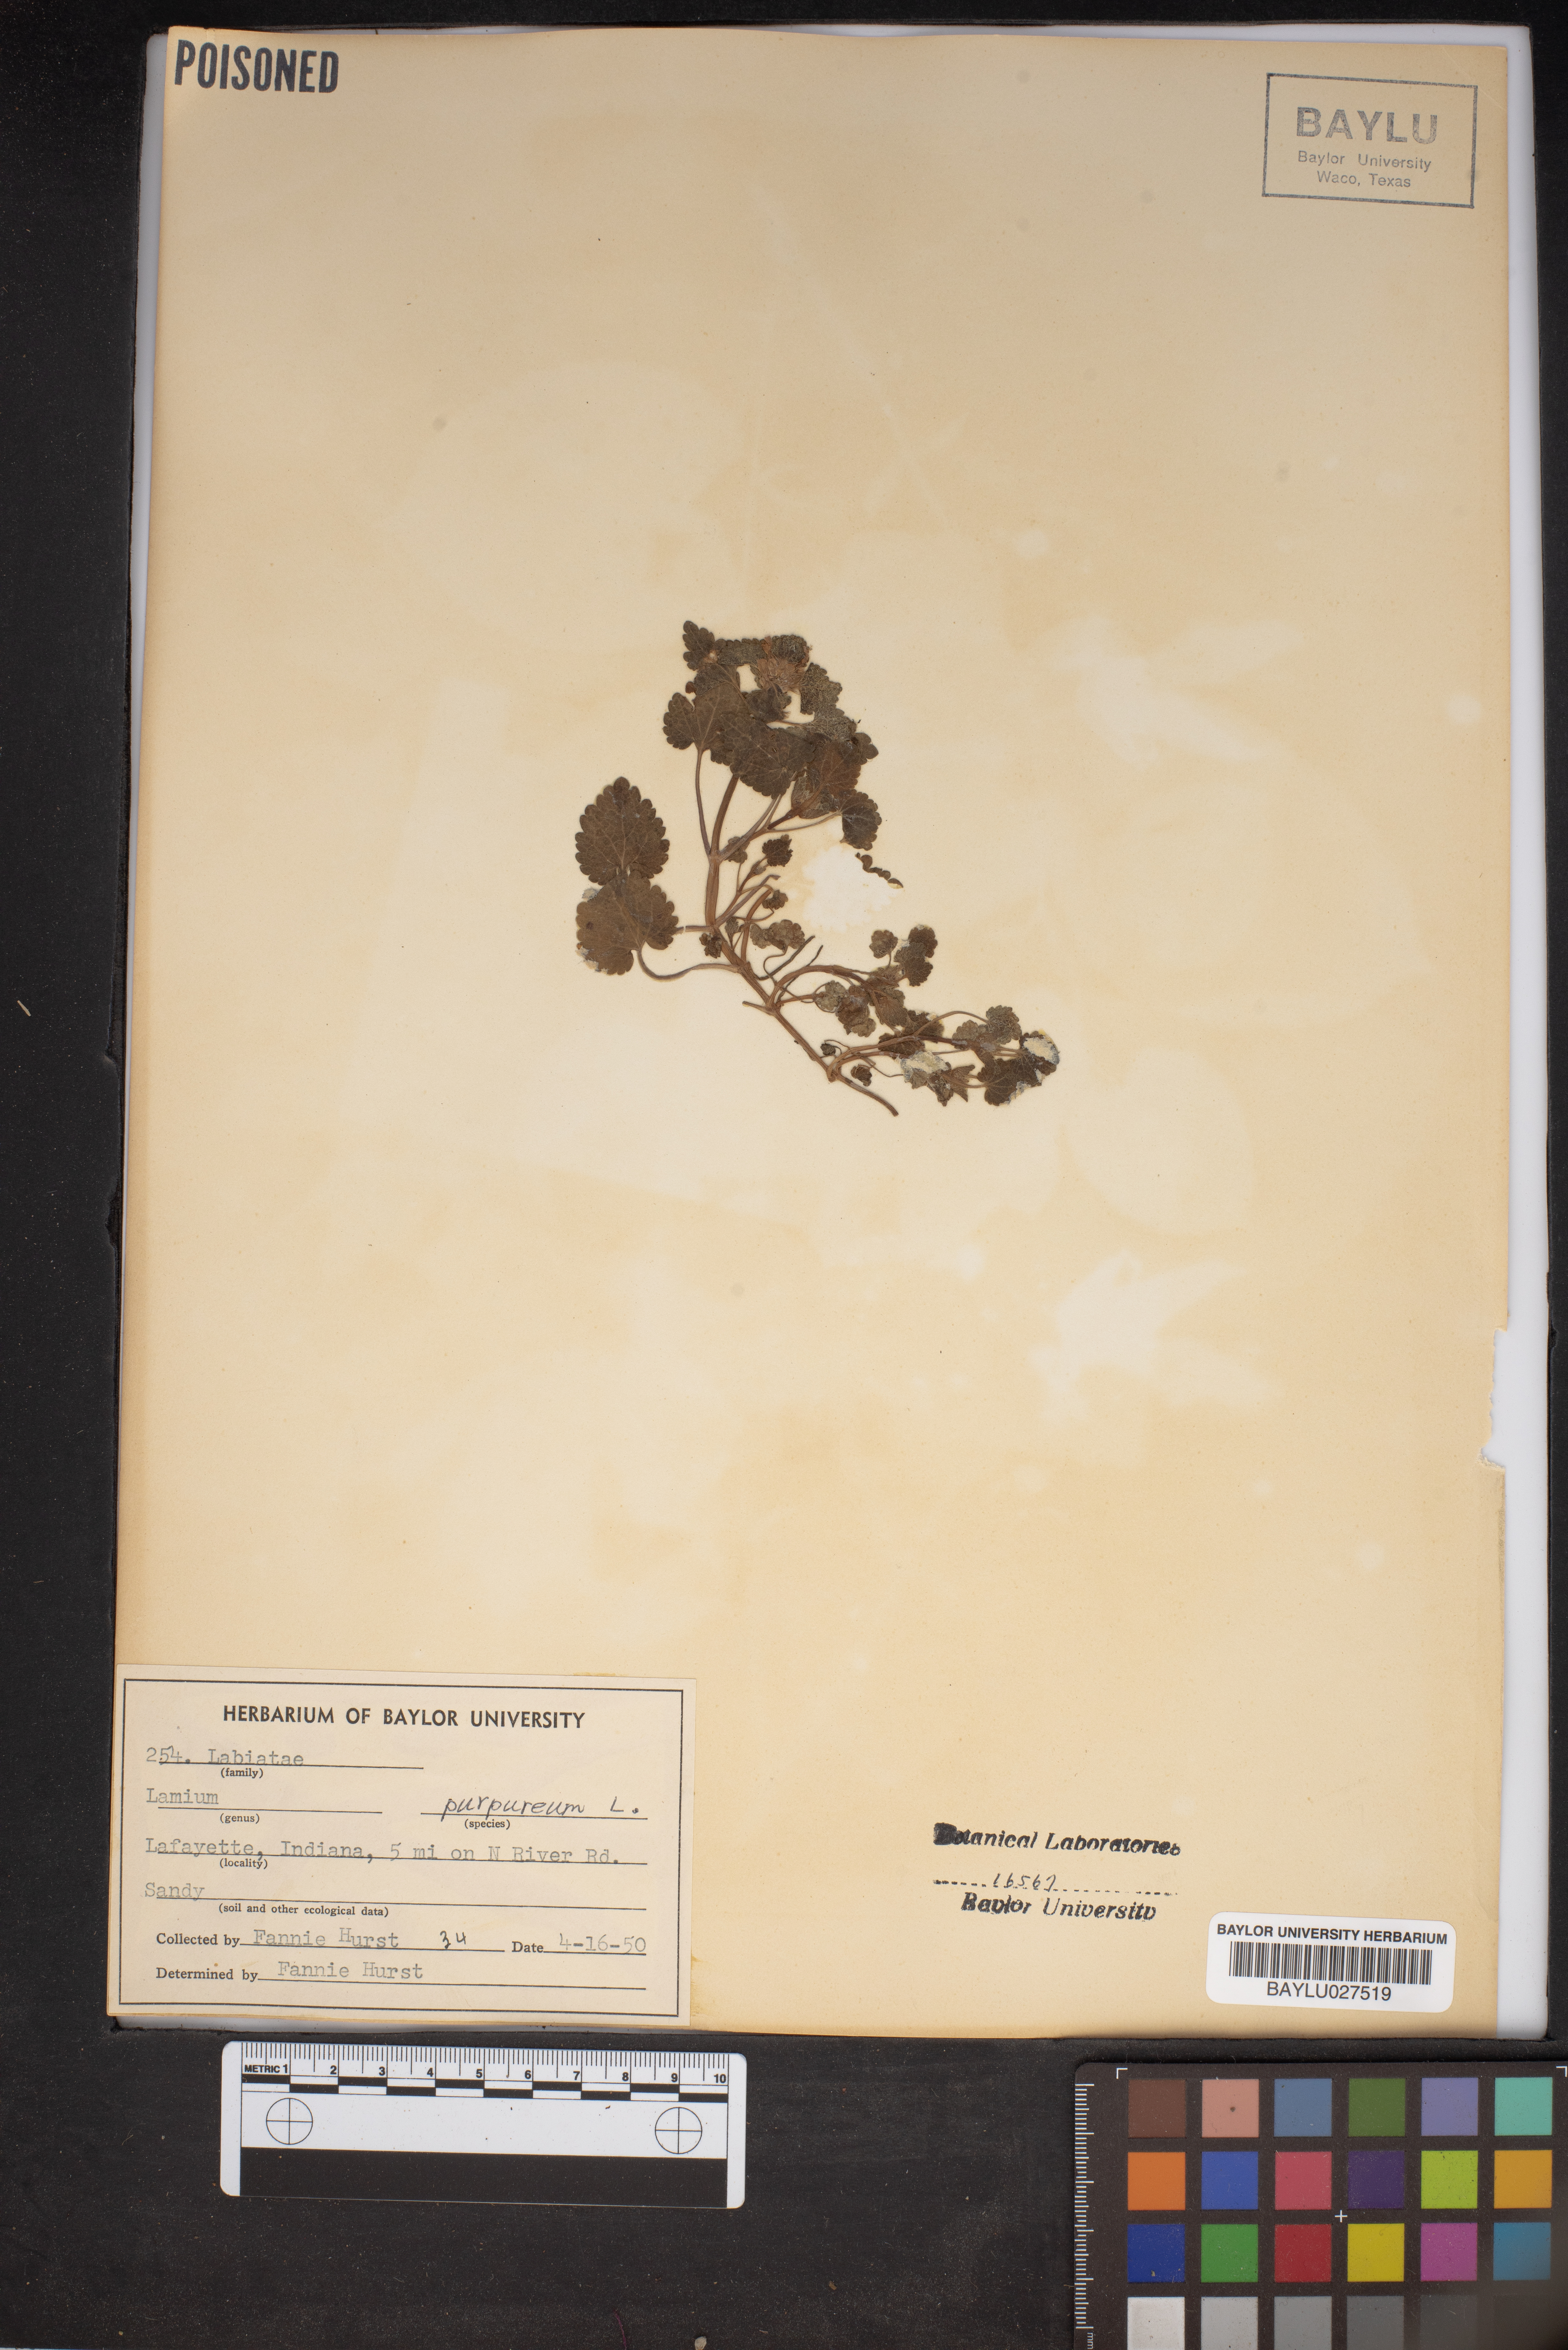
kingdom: Plantae
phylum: Tracheophyta
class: Magnoliopsida
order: Lamiales
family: Lamiaceae
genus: Lamium
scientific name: Lamium purpureum
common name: Red dead-nettle
